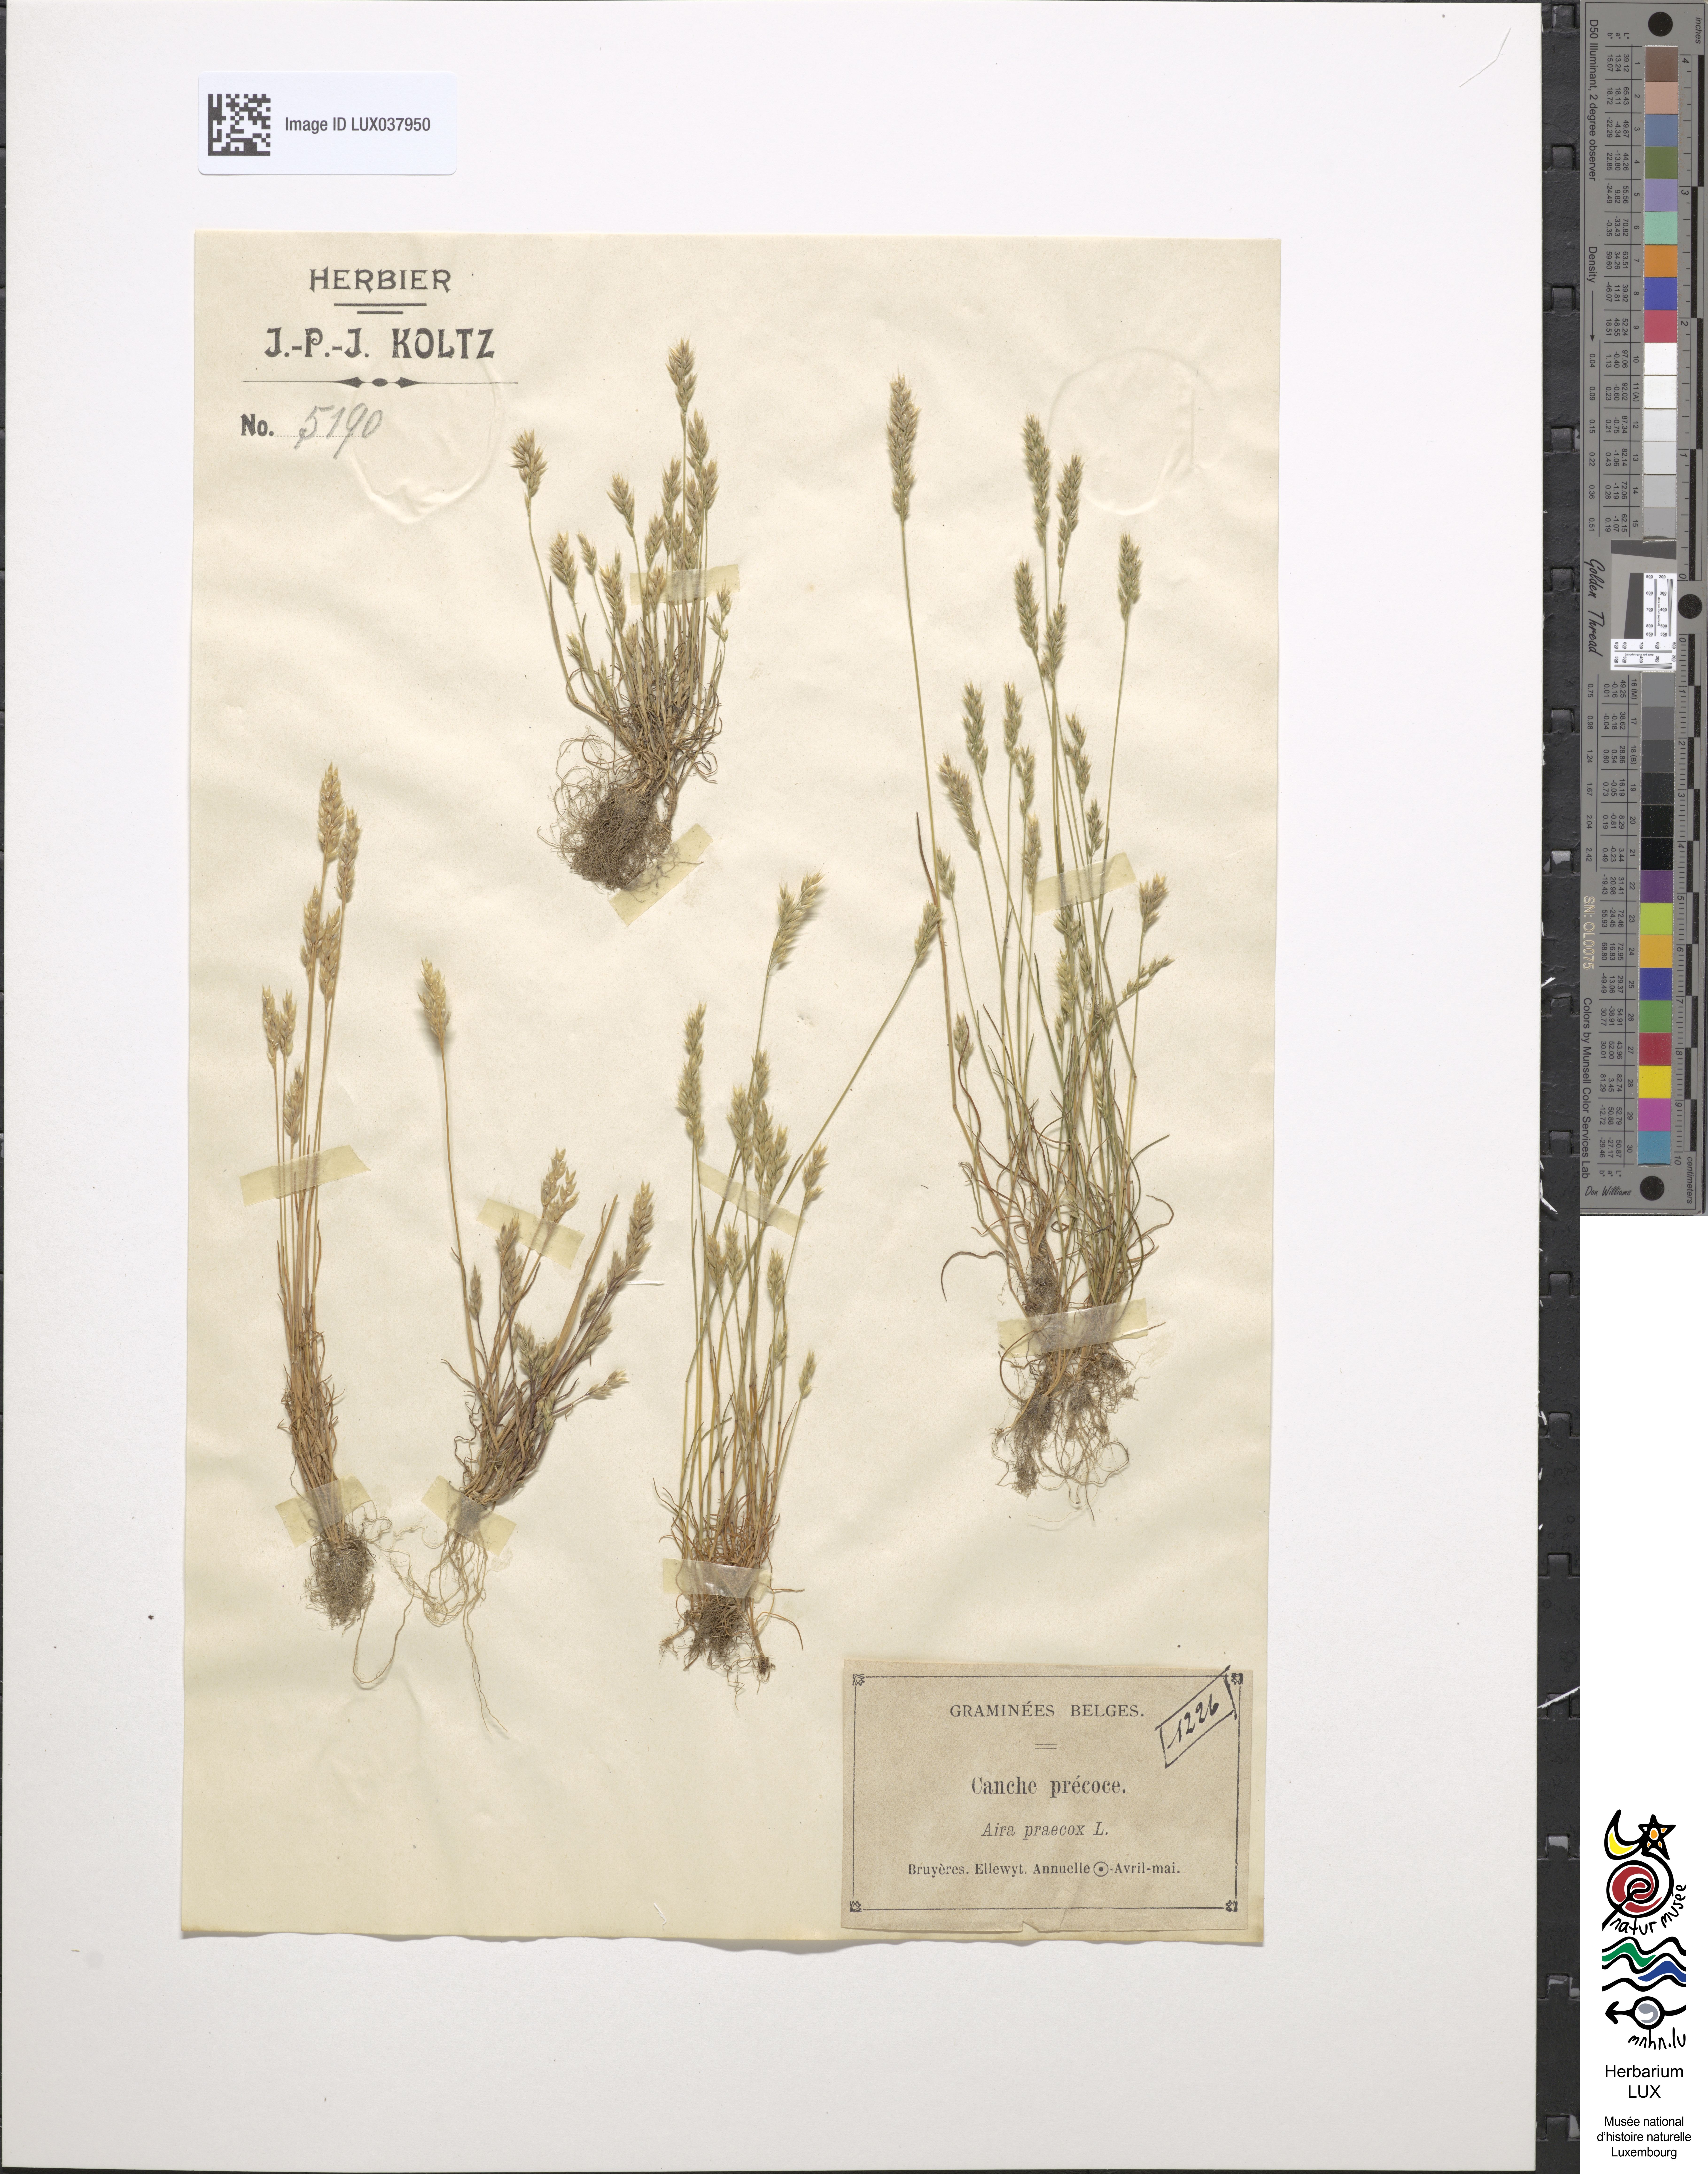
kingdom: Plantae
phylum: Tracheophyta
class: Liliopsida
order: Poales
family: Poaceae
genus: Aira
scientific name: Aira praecox
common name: Early hair-grass
